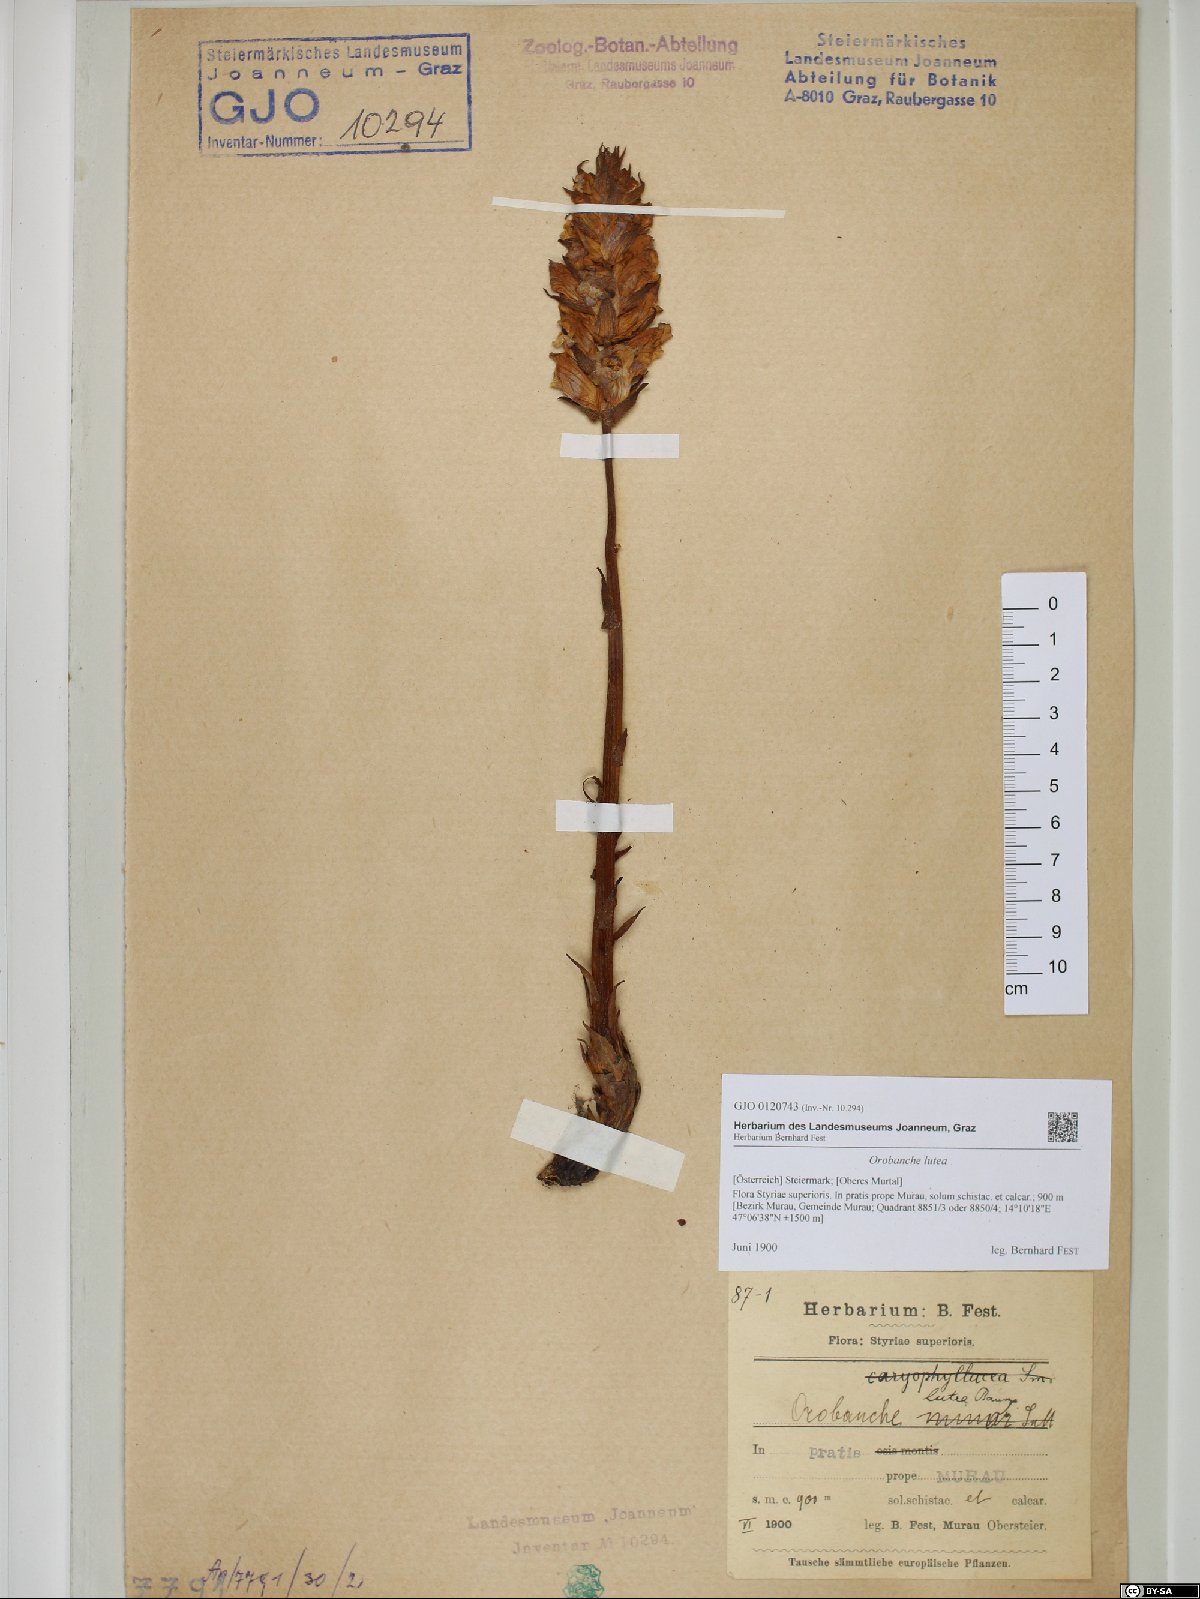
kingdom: Plantae
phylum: Tracheophyta
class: Magnoliopsida
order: Lamiales
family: Orobanchaceae
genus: Orobanche
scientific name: Orobanche lutea
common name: Yellow broomrape
